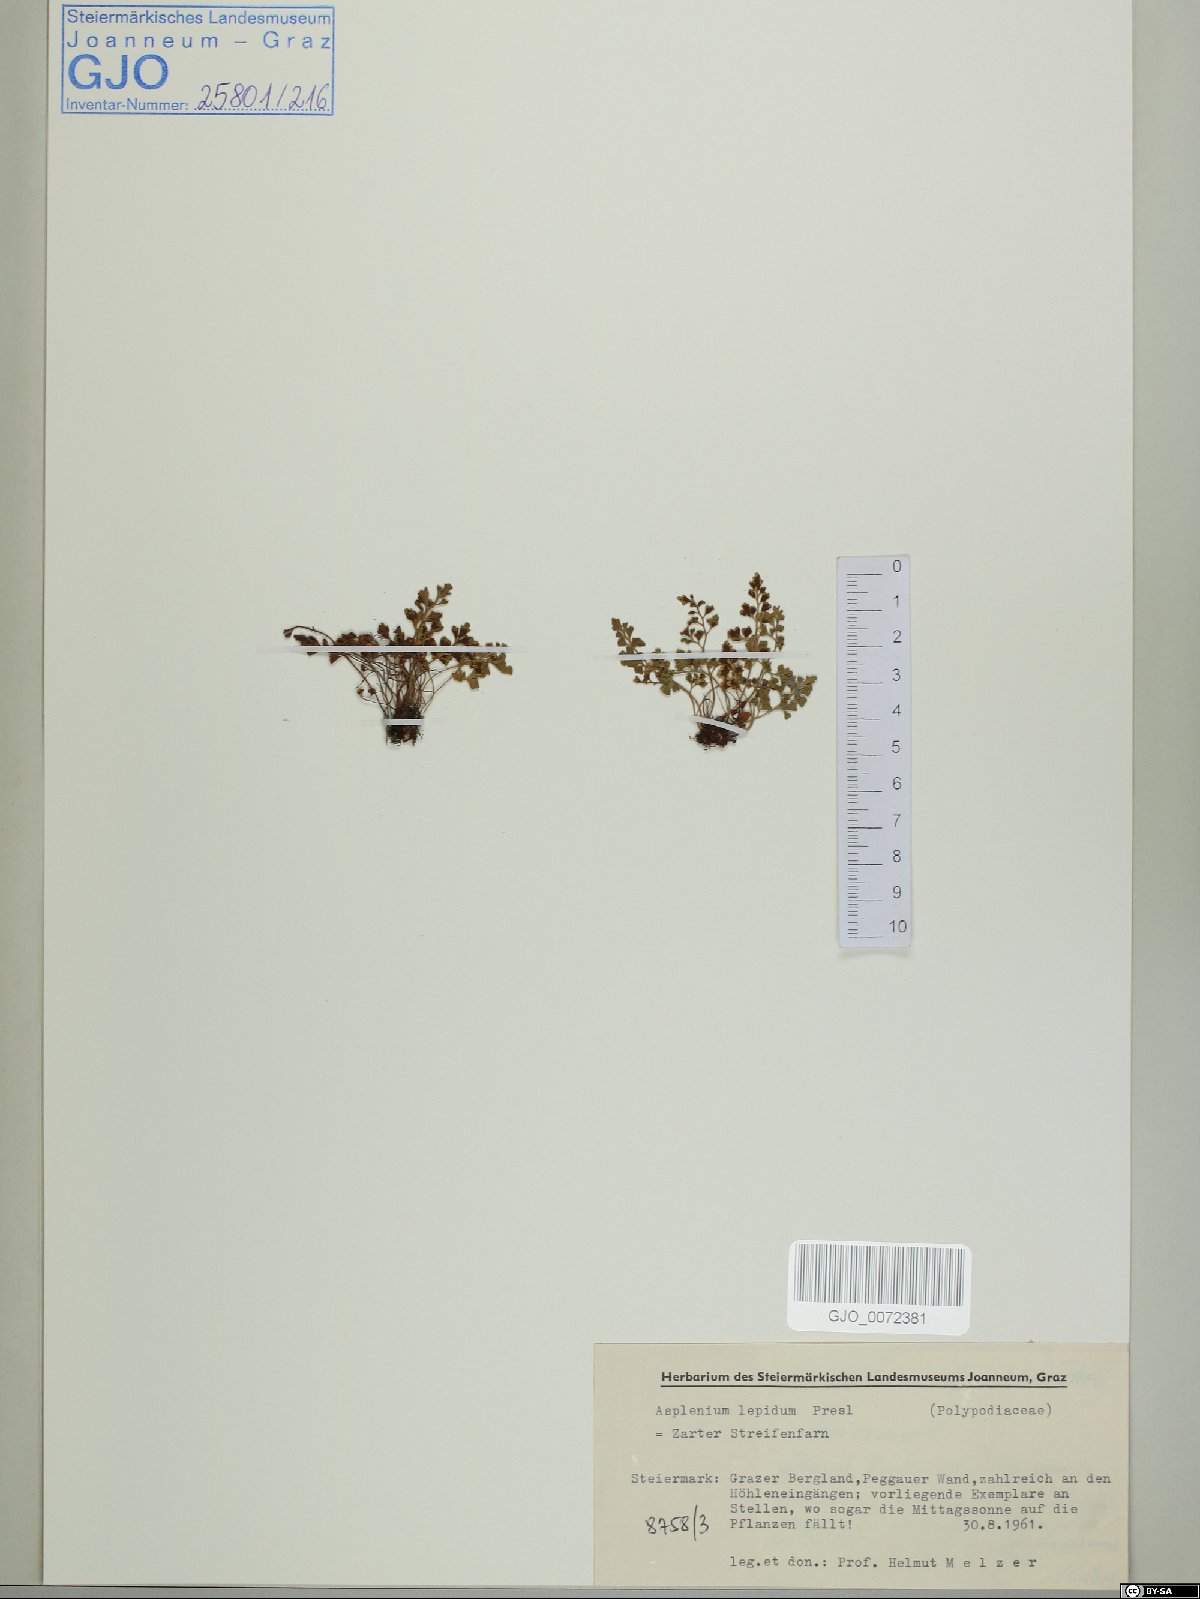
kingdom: Plantae
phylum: Tracheophyta
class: Polypodiopsida
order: Polypodiales
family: Aspleniaceae
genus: Asplenium
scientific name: Asplenium lepidum
